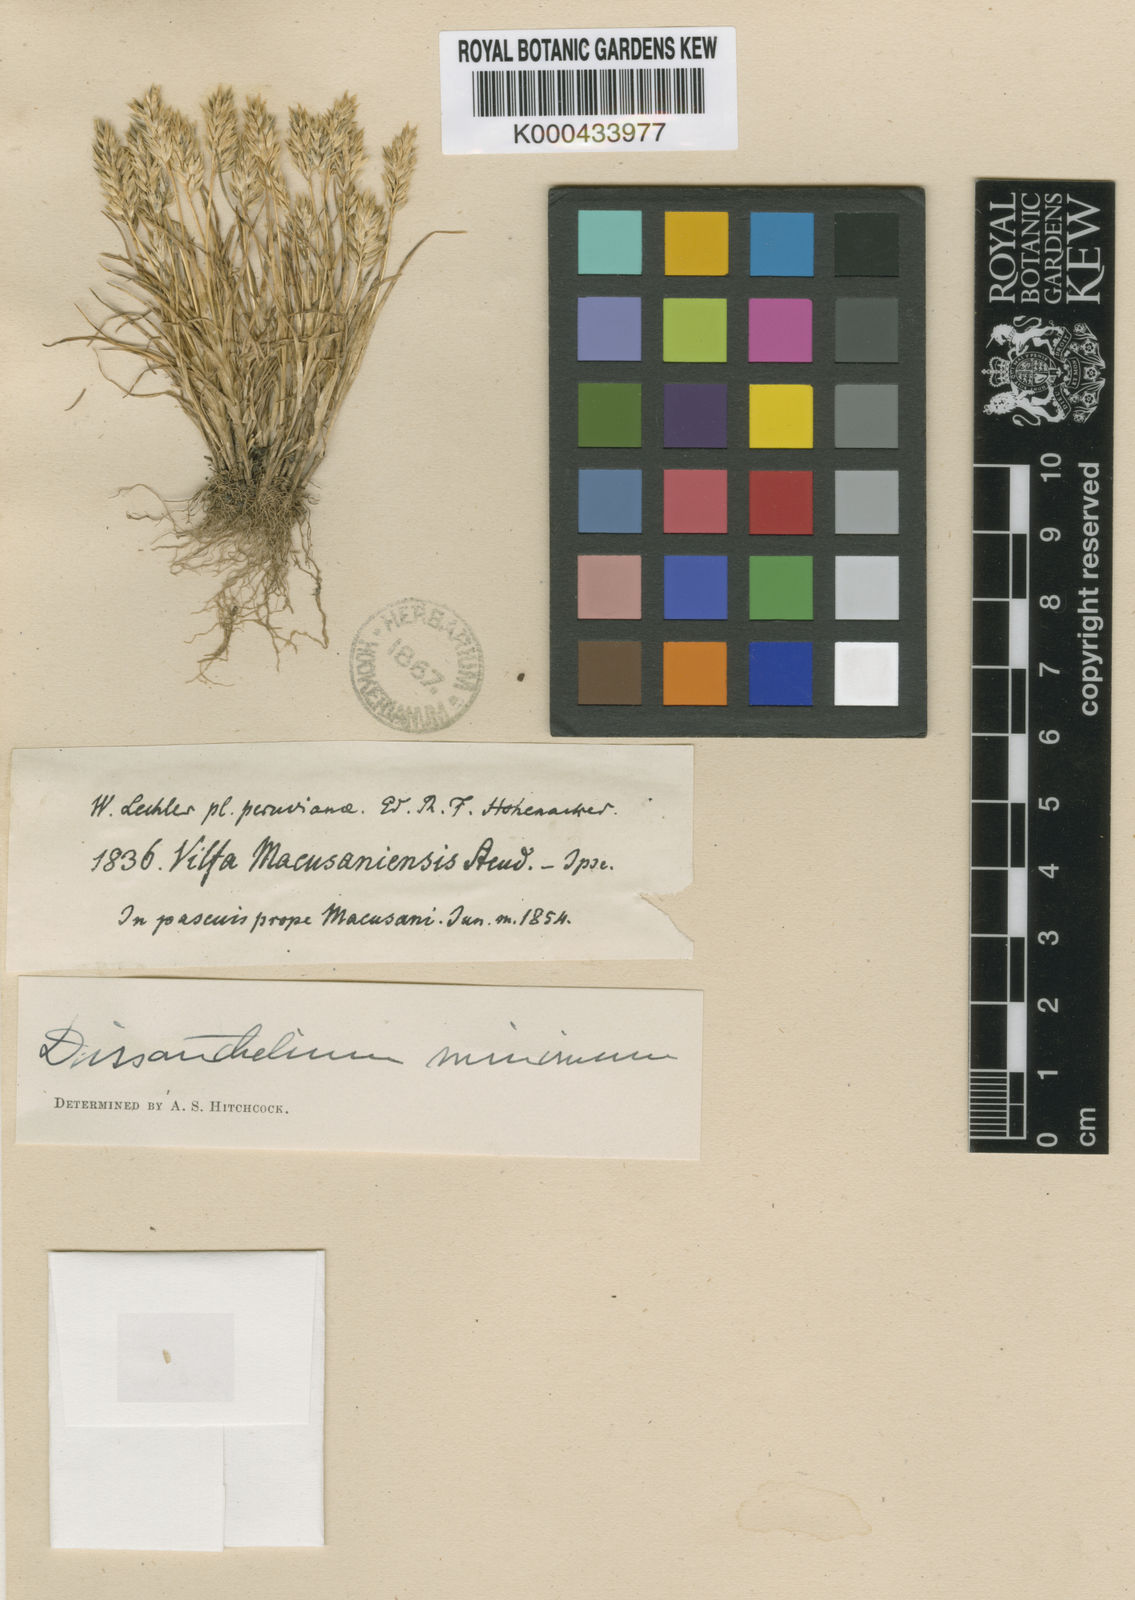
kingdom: Plantae
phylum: Tracheophyta
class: Liliopsida
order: Poales
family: Poaceae
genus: Poa
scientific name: Poa
